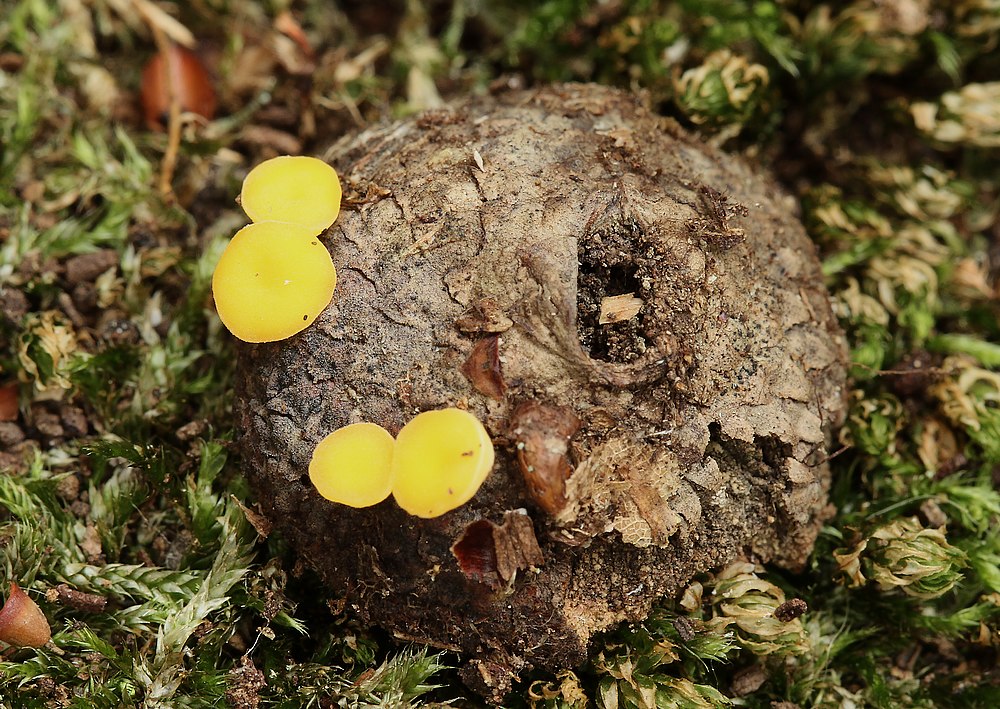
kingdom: Fungi
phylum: Ascomycota
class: Leotiomycetes
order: Helotiales
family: Helotiaceae
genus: Hymenoscyphus
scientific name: Hymenoscyphus
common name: stilkskive
